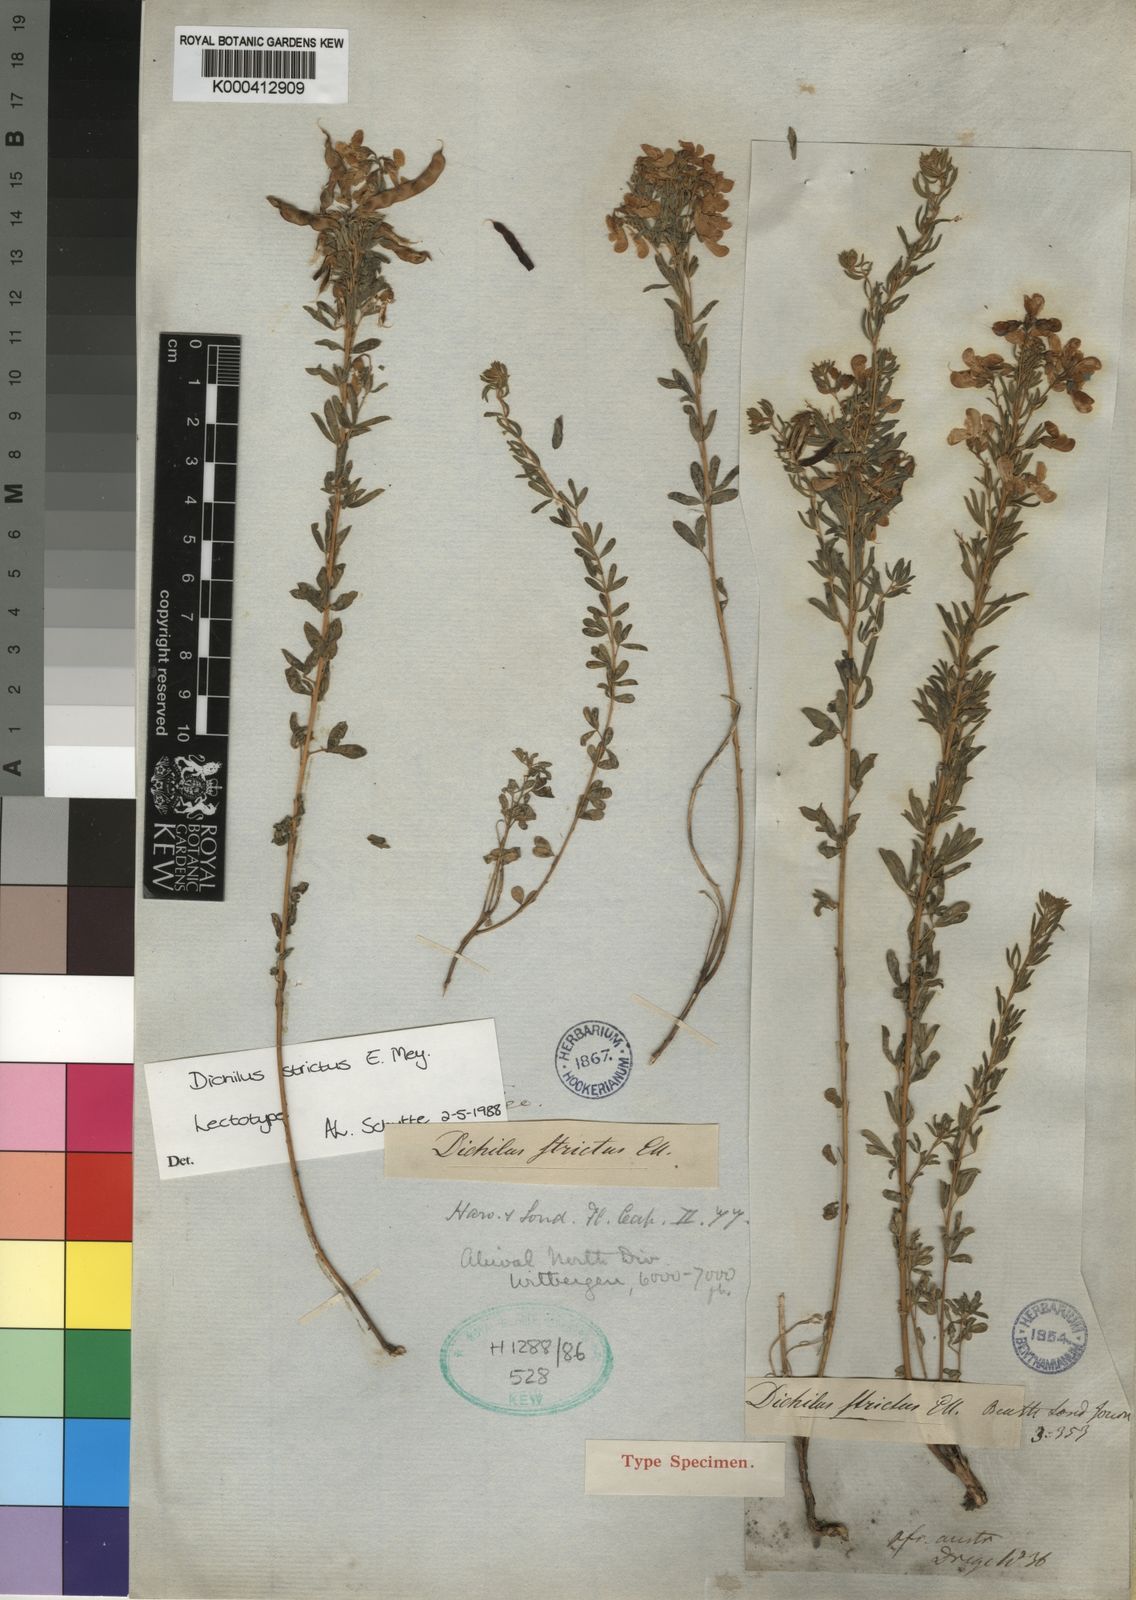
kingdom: Plantae
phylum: Tracheophyta
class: Magnoliopsida
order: Fabales
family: Fabaceae
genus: Dichilus
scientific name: Dichilus strictus
